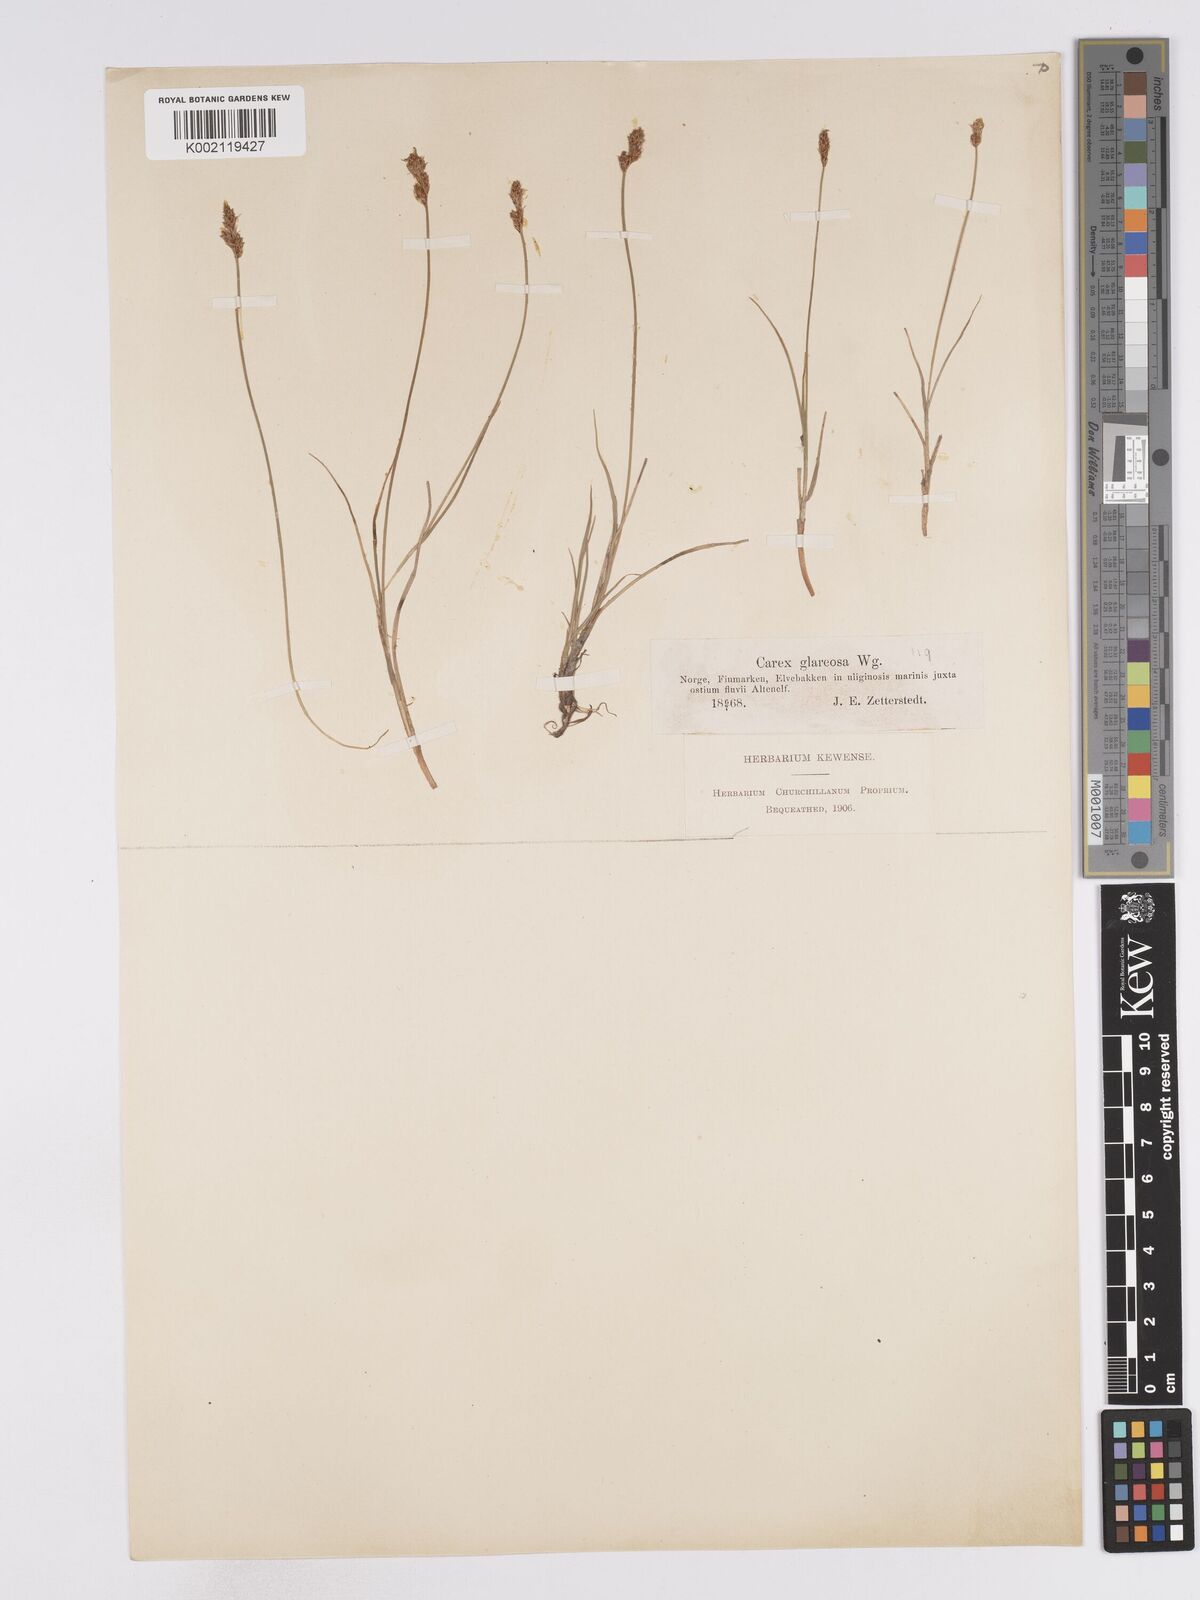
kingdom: Plantae
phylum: Tracheophyta
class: Liliopsida
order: Poales
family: Cyperaceae
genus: Carex
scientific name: Carex glareosa
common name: Clustered sedge
